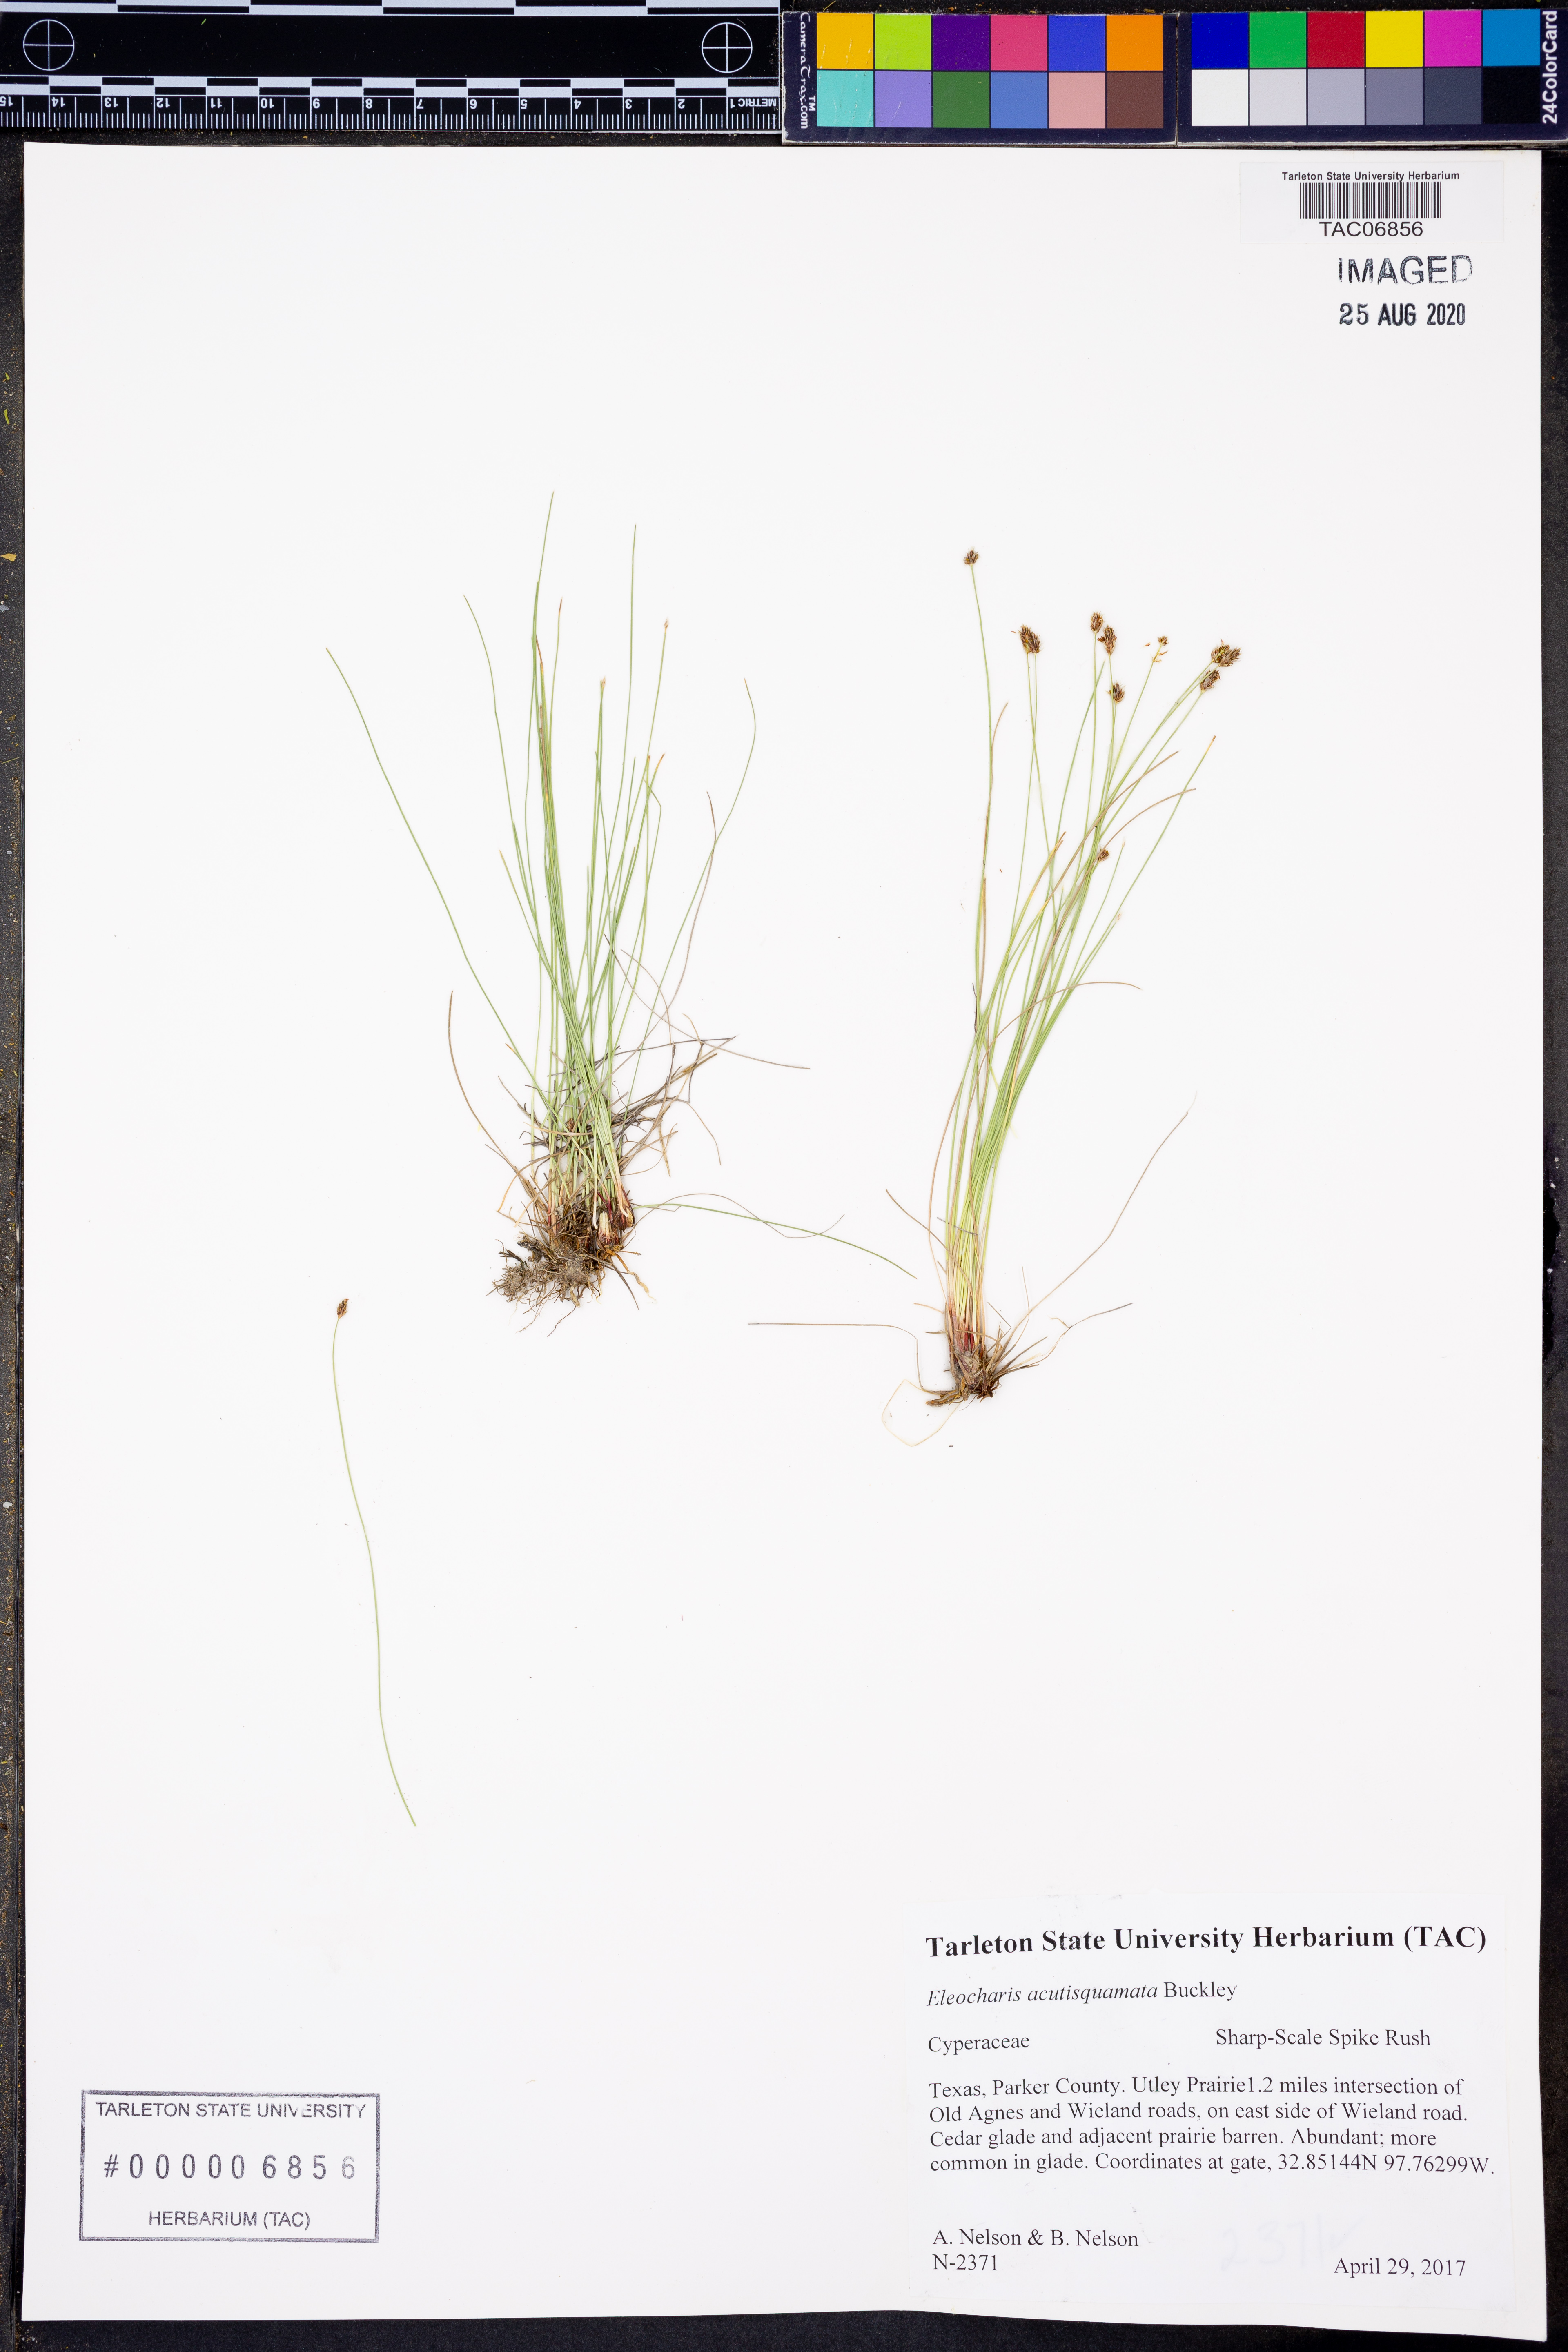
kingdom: Plantae
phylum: Tracheophyta
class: Liliopsida
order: Poales
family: Cyperaceae
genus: Eleocharis
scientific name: Eleocharis compressa
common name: Flat-stem spike-rush
